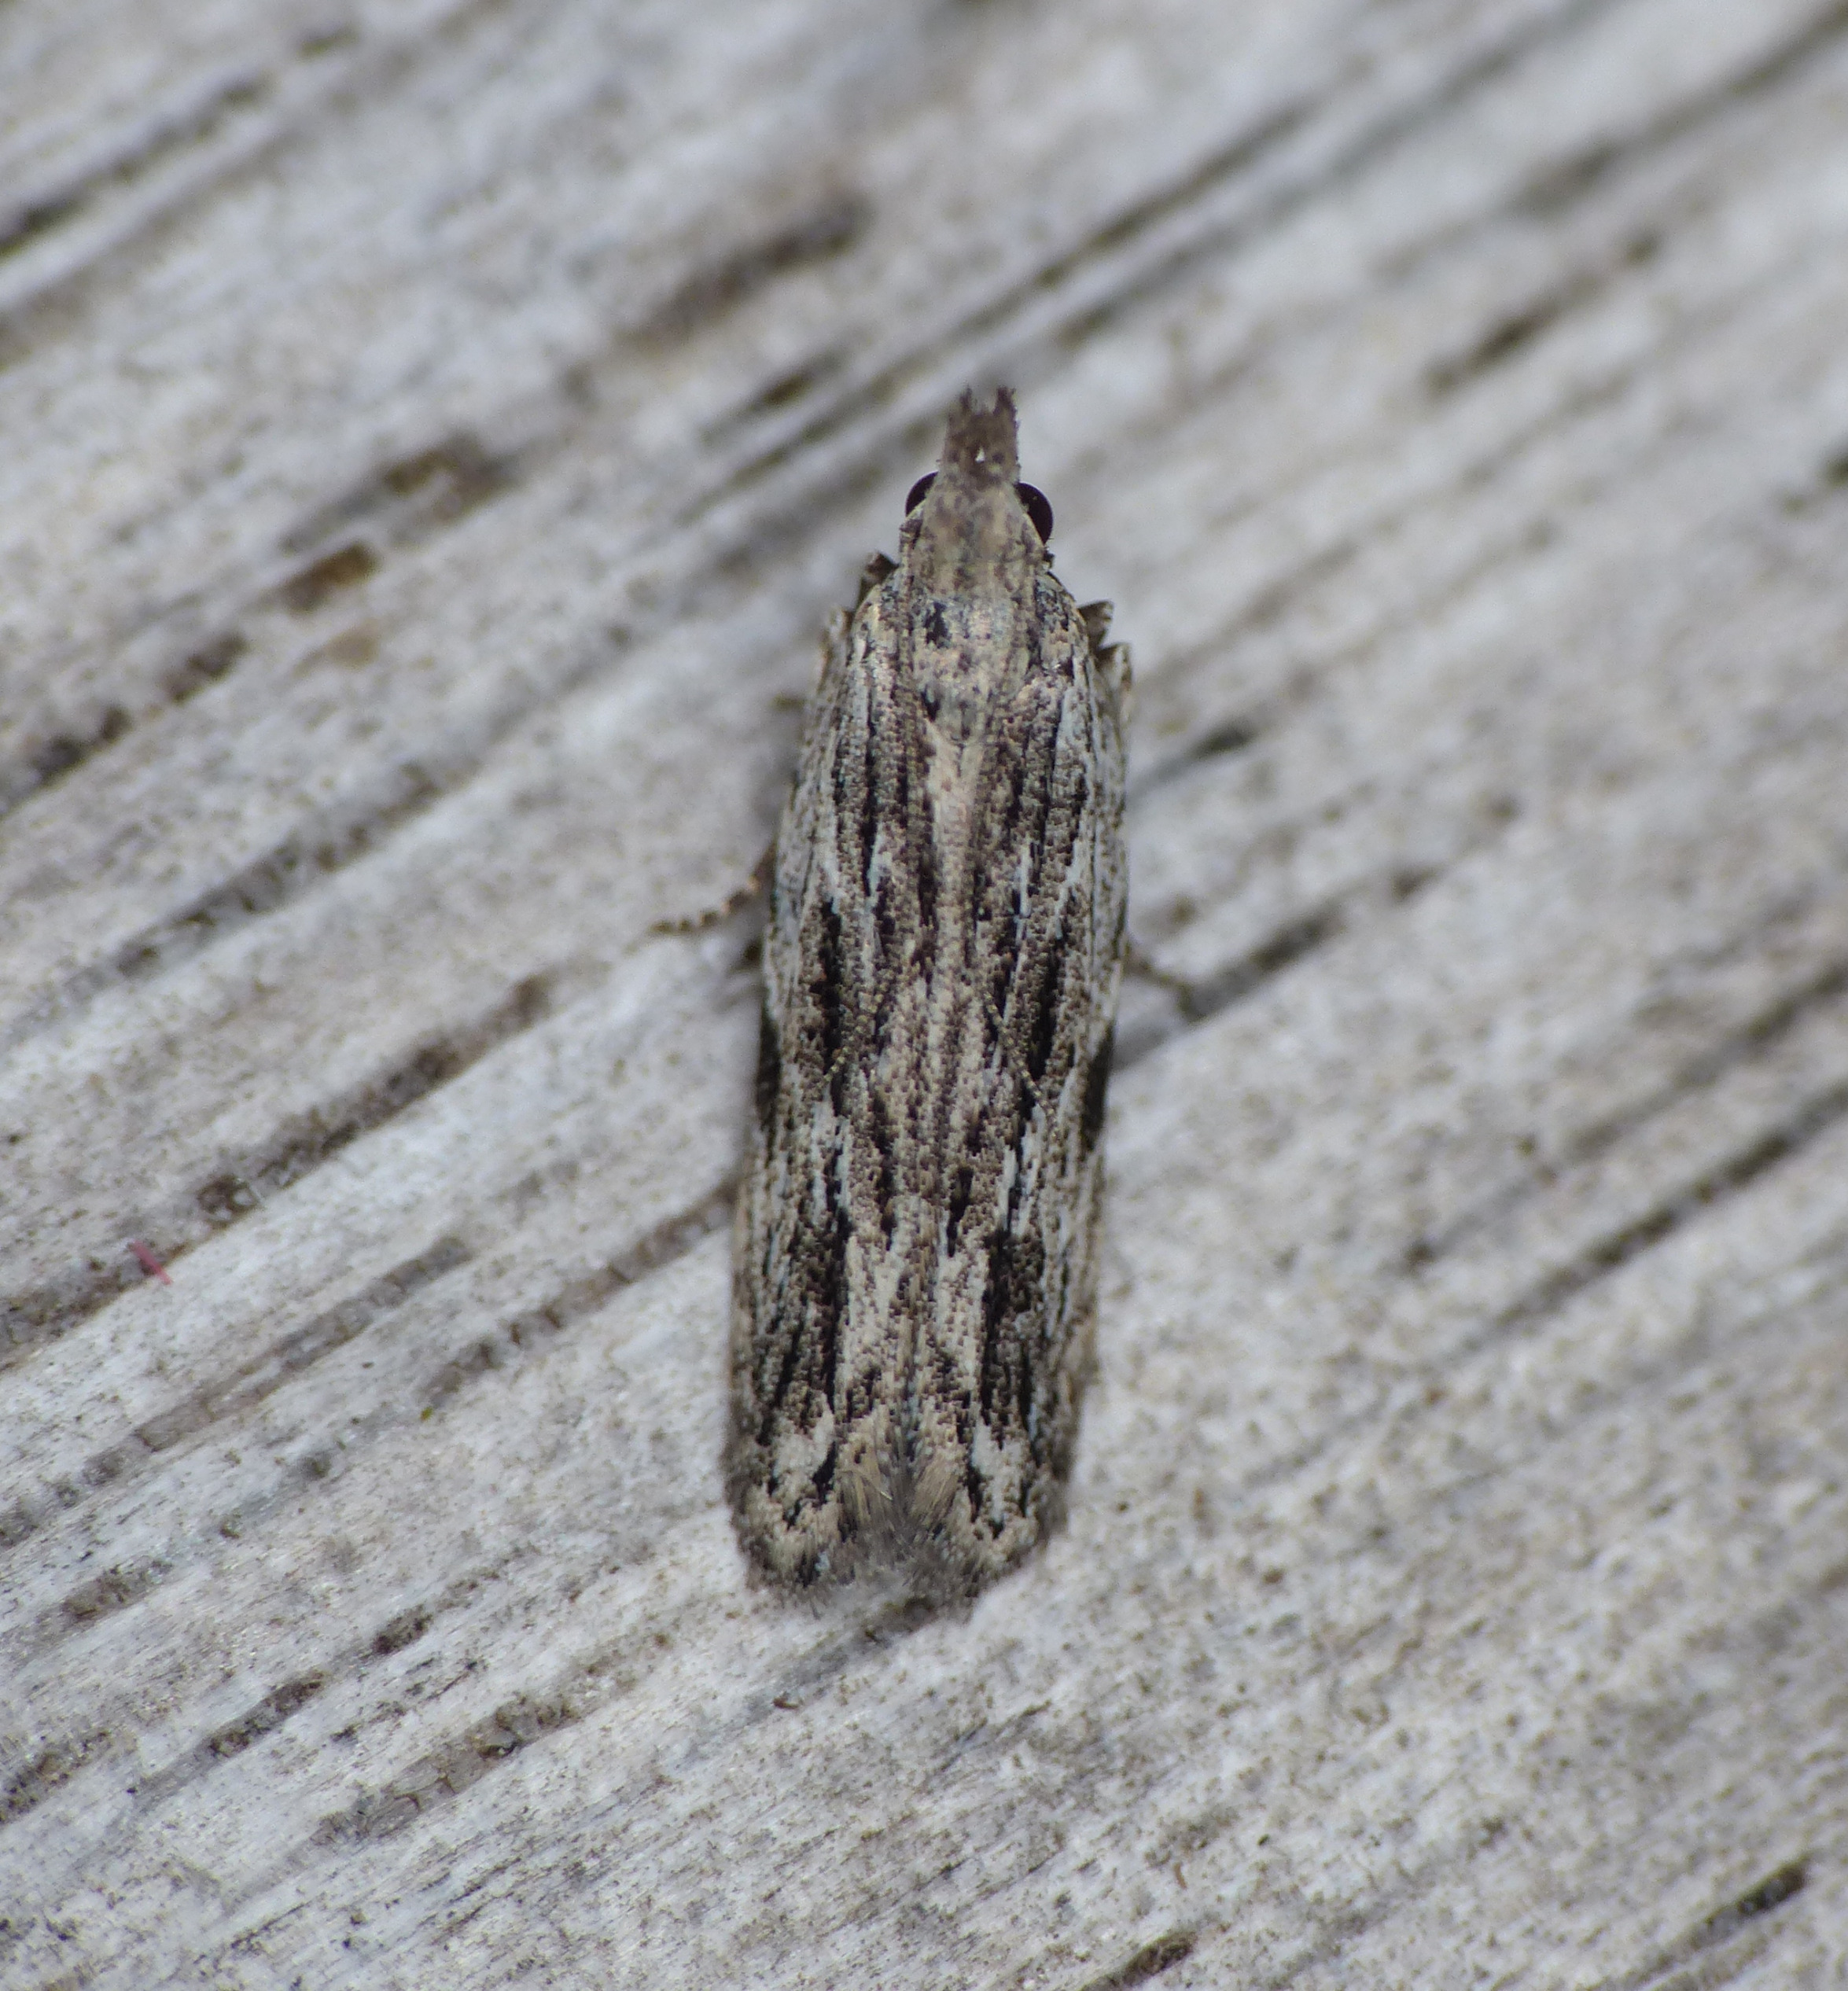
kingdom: Animalia
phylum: Arthropoda
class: Insecta
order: Lepidoptera
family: Gelechiidae
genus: Anarsia
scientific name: Anarsia innoxiella
